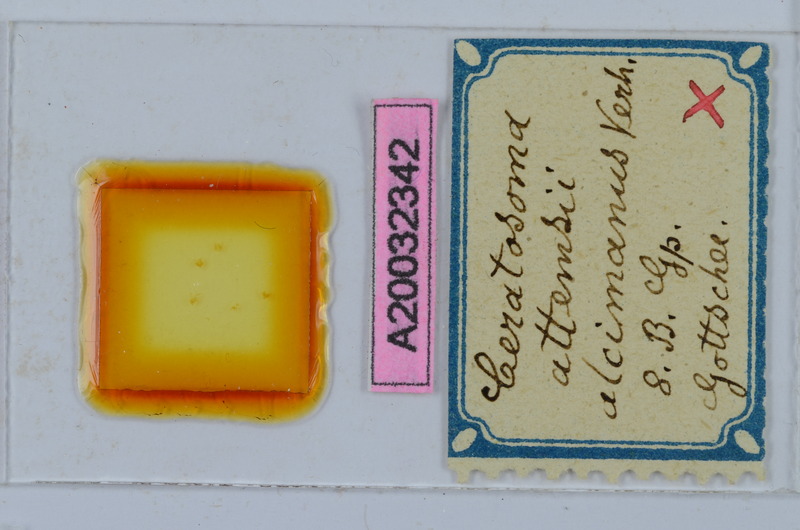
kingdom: Animalia
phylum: Arthropoda
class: Diplopoda
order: Chordeumatida
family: Craspedosomatidae
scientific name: Craspedosomatidae
